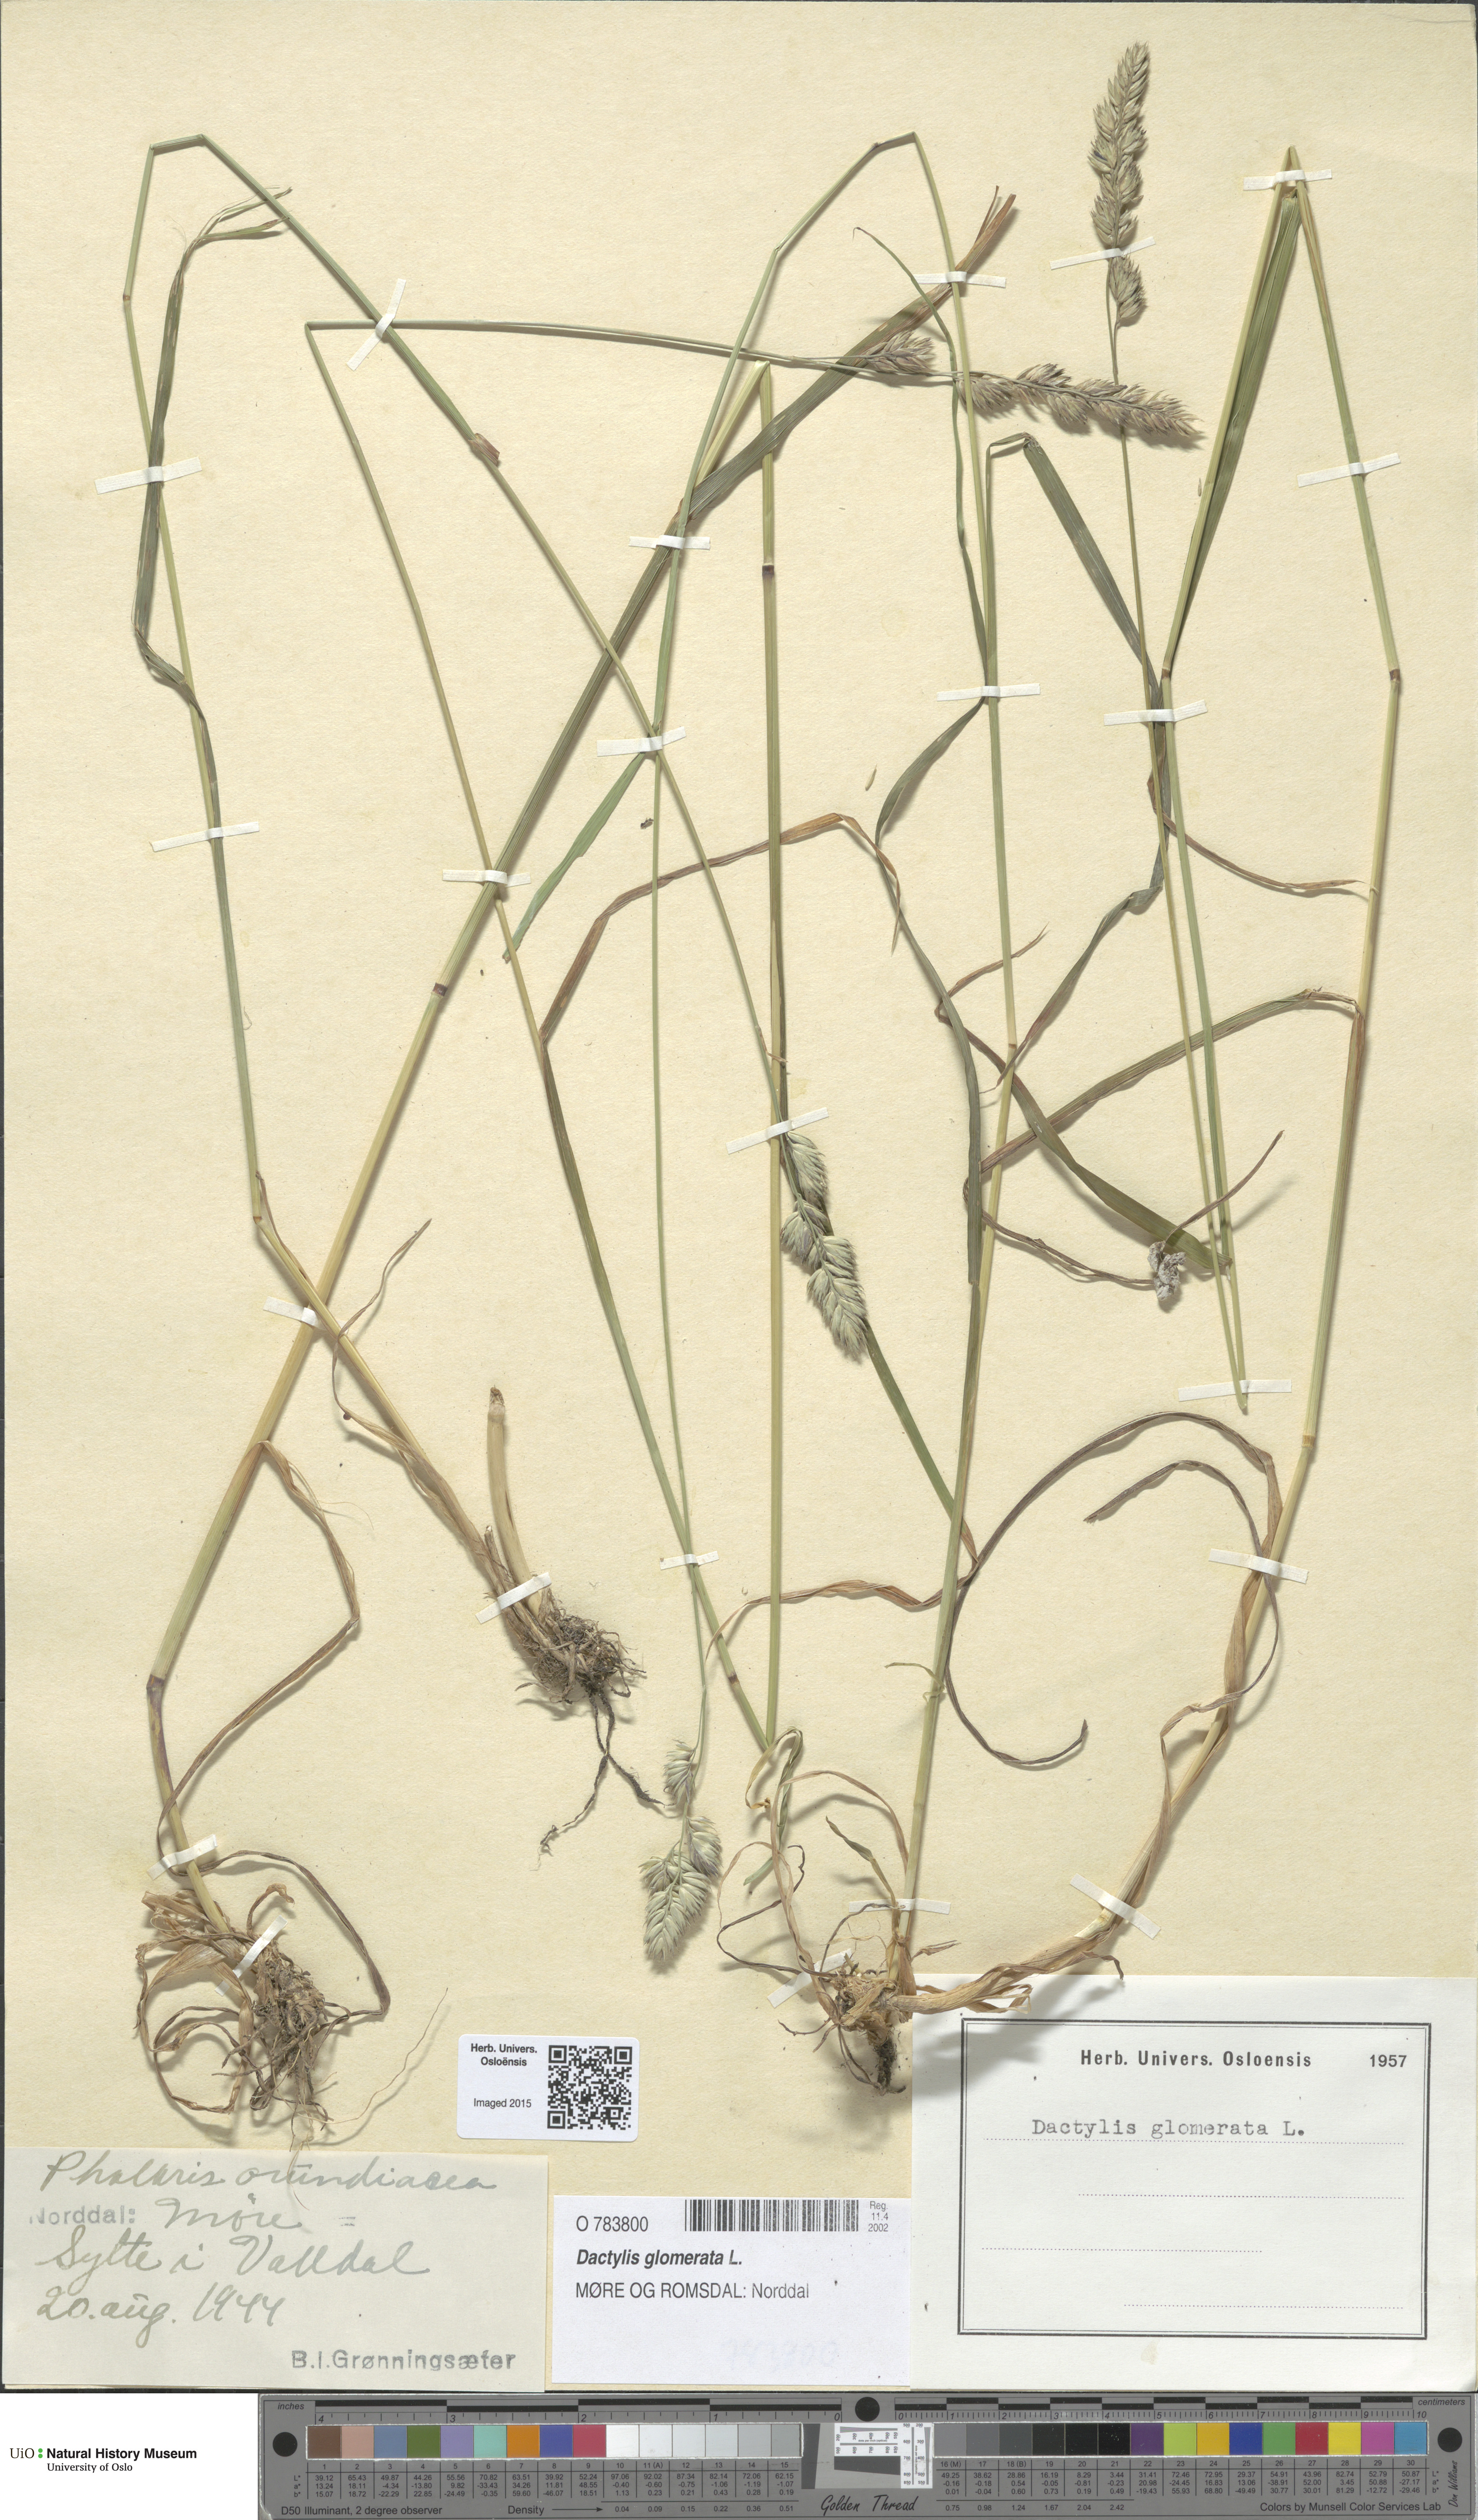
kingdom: Plantae
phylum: Tracheophyta
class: Liliopsida
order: Poales
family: Poaceae
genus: Dactylis
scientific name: Dactylis glomerata
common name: Orchardgrass
